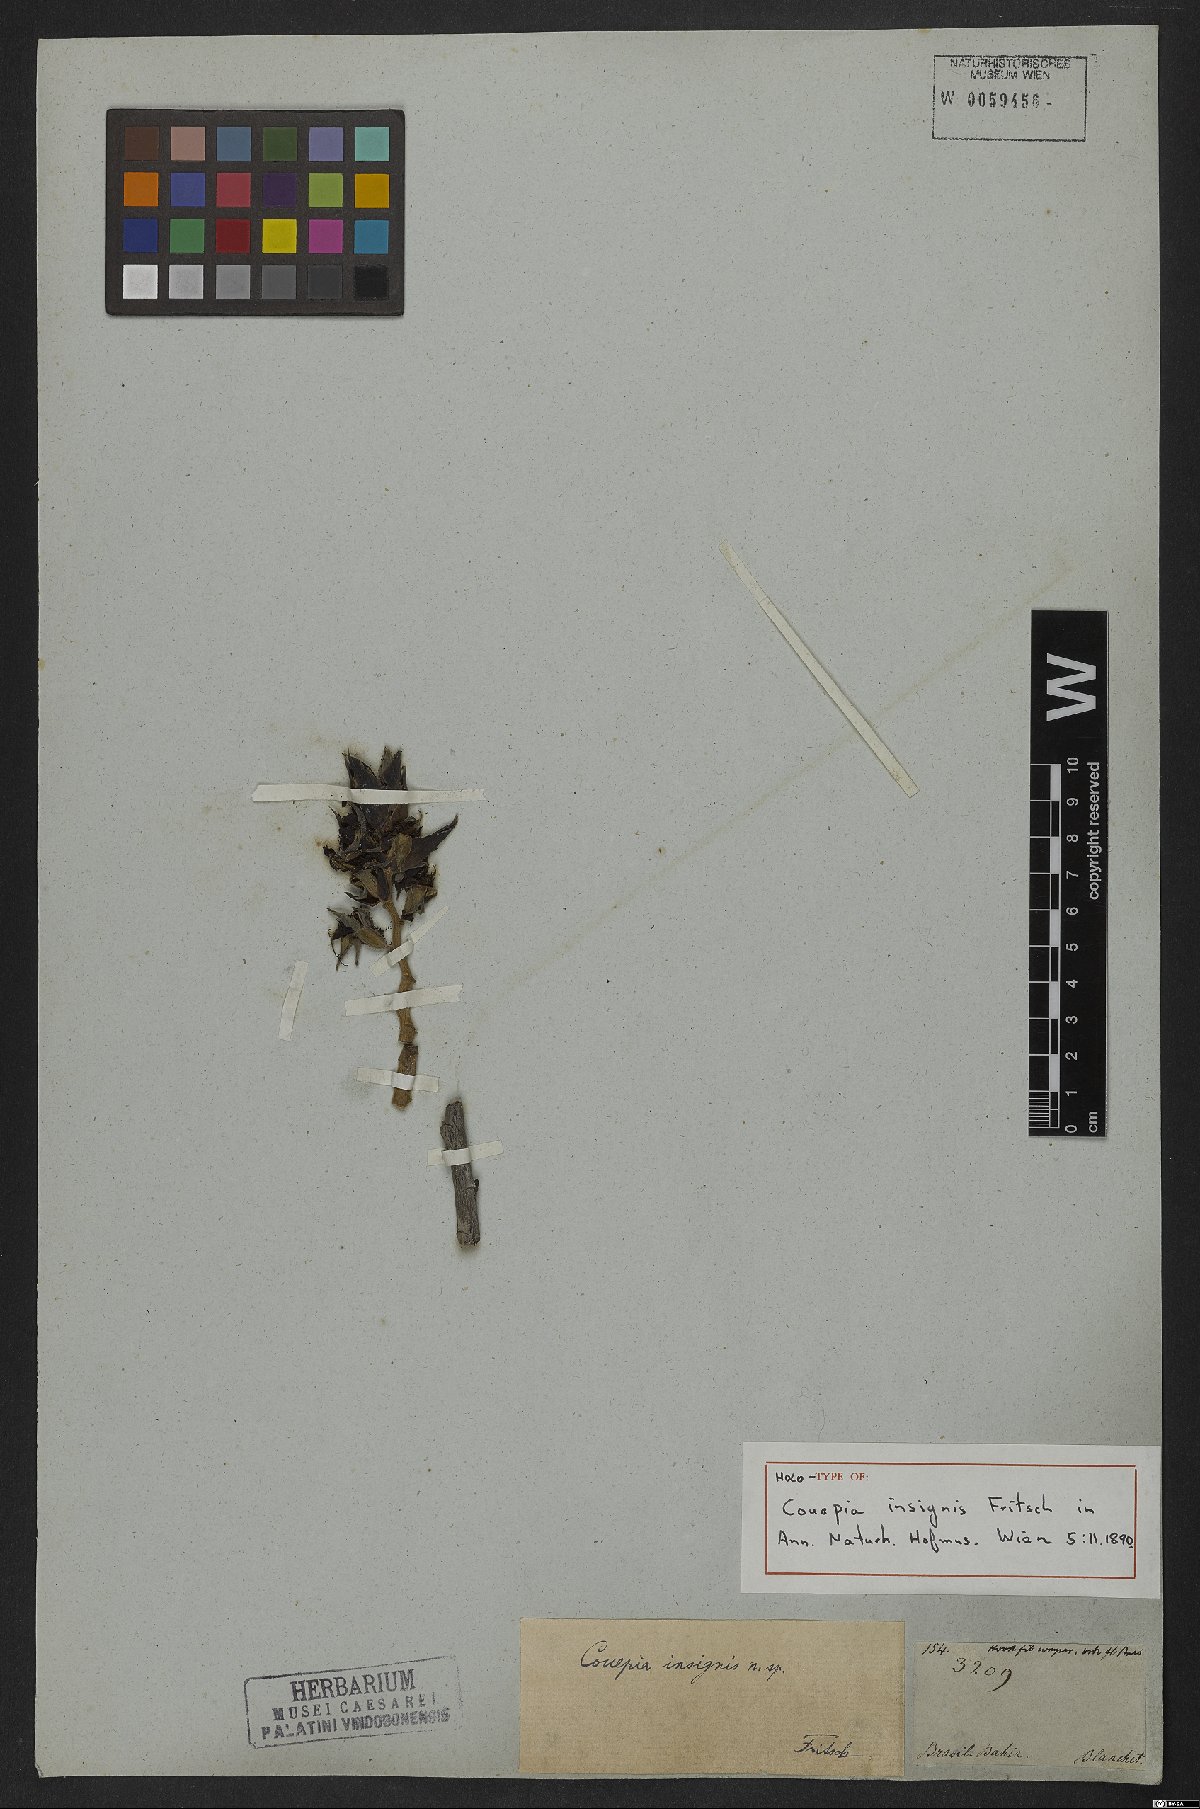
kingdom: Plantae
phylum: Tracheophyta
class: Magnoliopsida
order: Malpighiales
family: Chrysobalanaceae
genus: Couepia
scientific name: Couepia insignis
